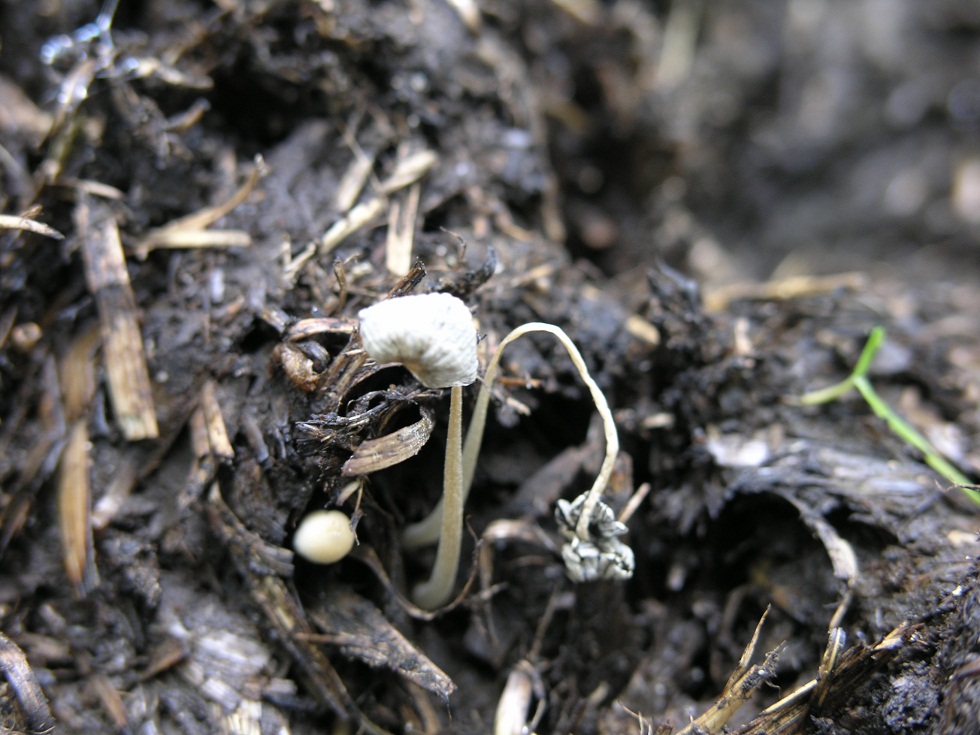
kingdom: Fungi
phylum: Basidiomycota
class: Agaricomycetes
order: Agaricales
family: Psathyrellaceae
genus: Tulosesus
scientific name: Tulosesus congregatus
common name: klynge-blækhat
